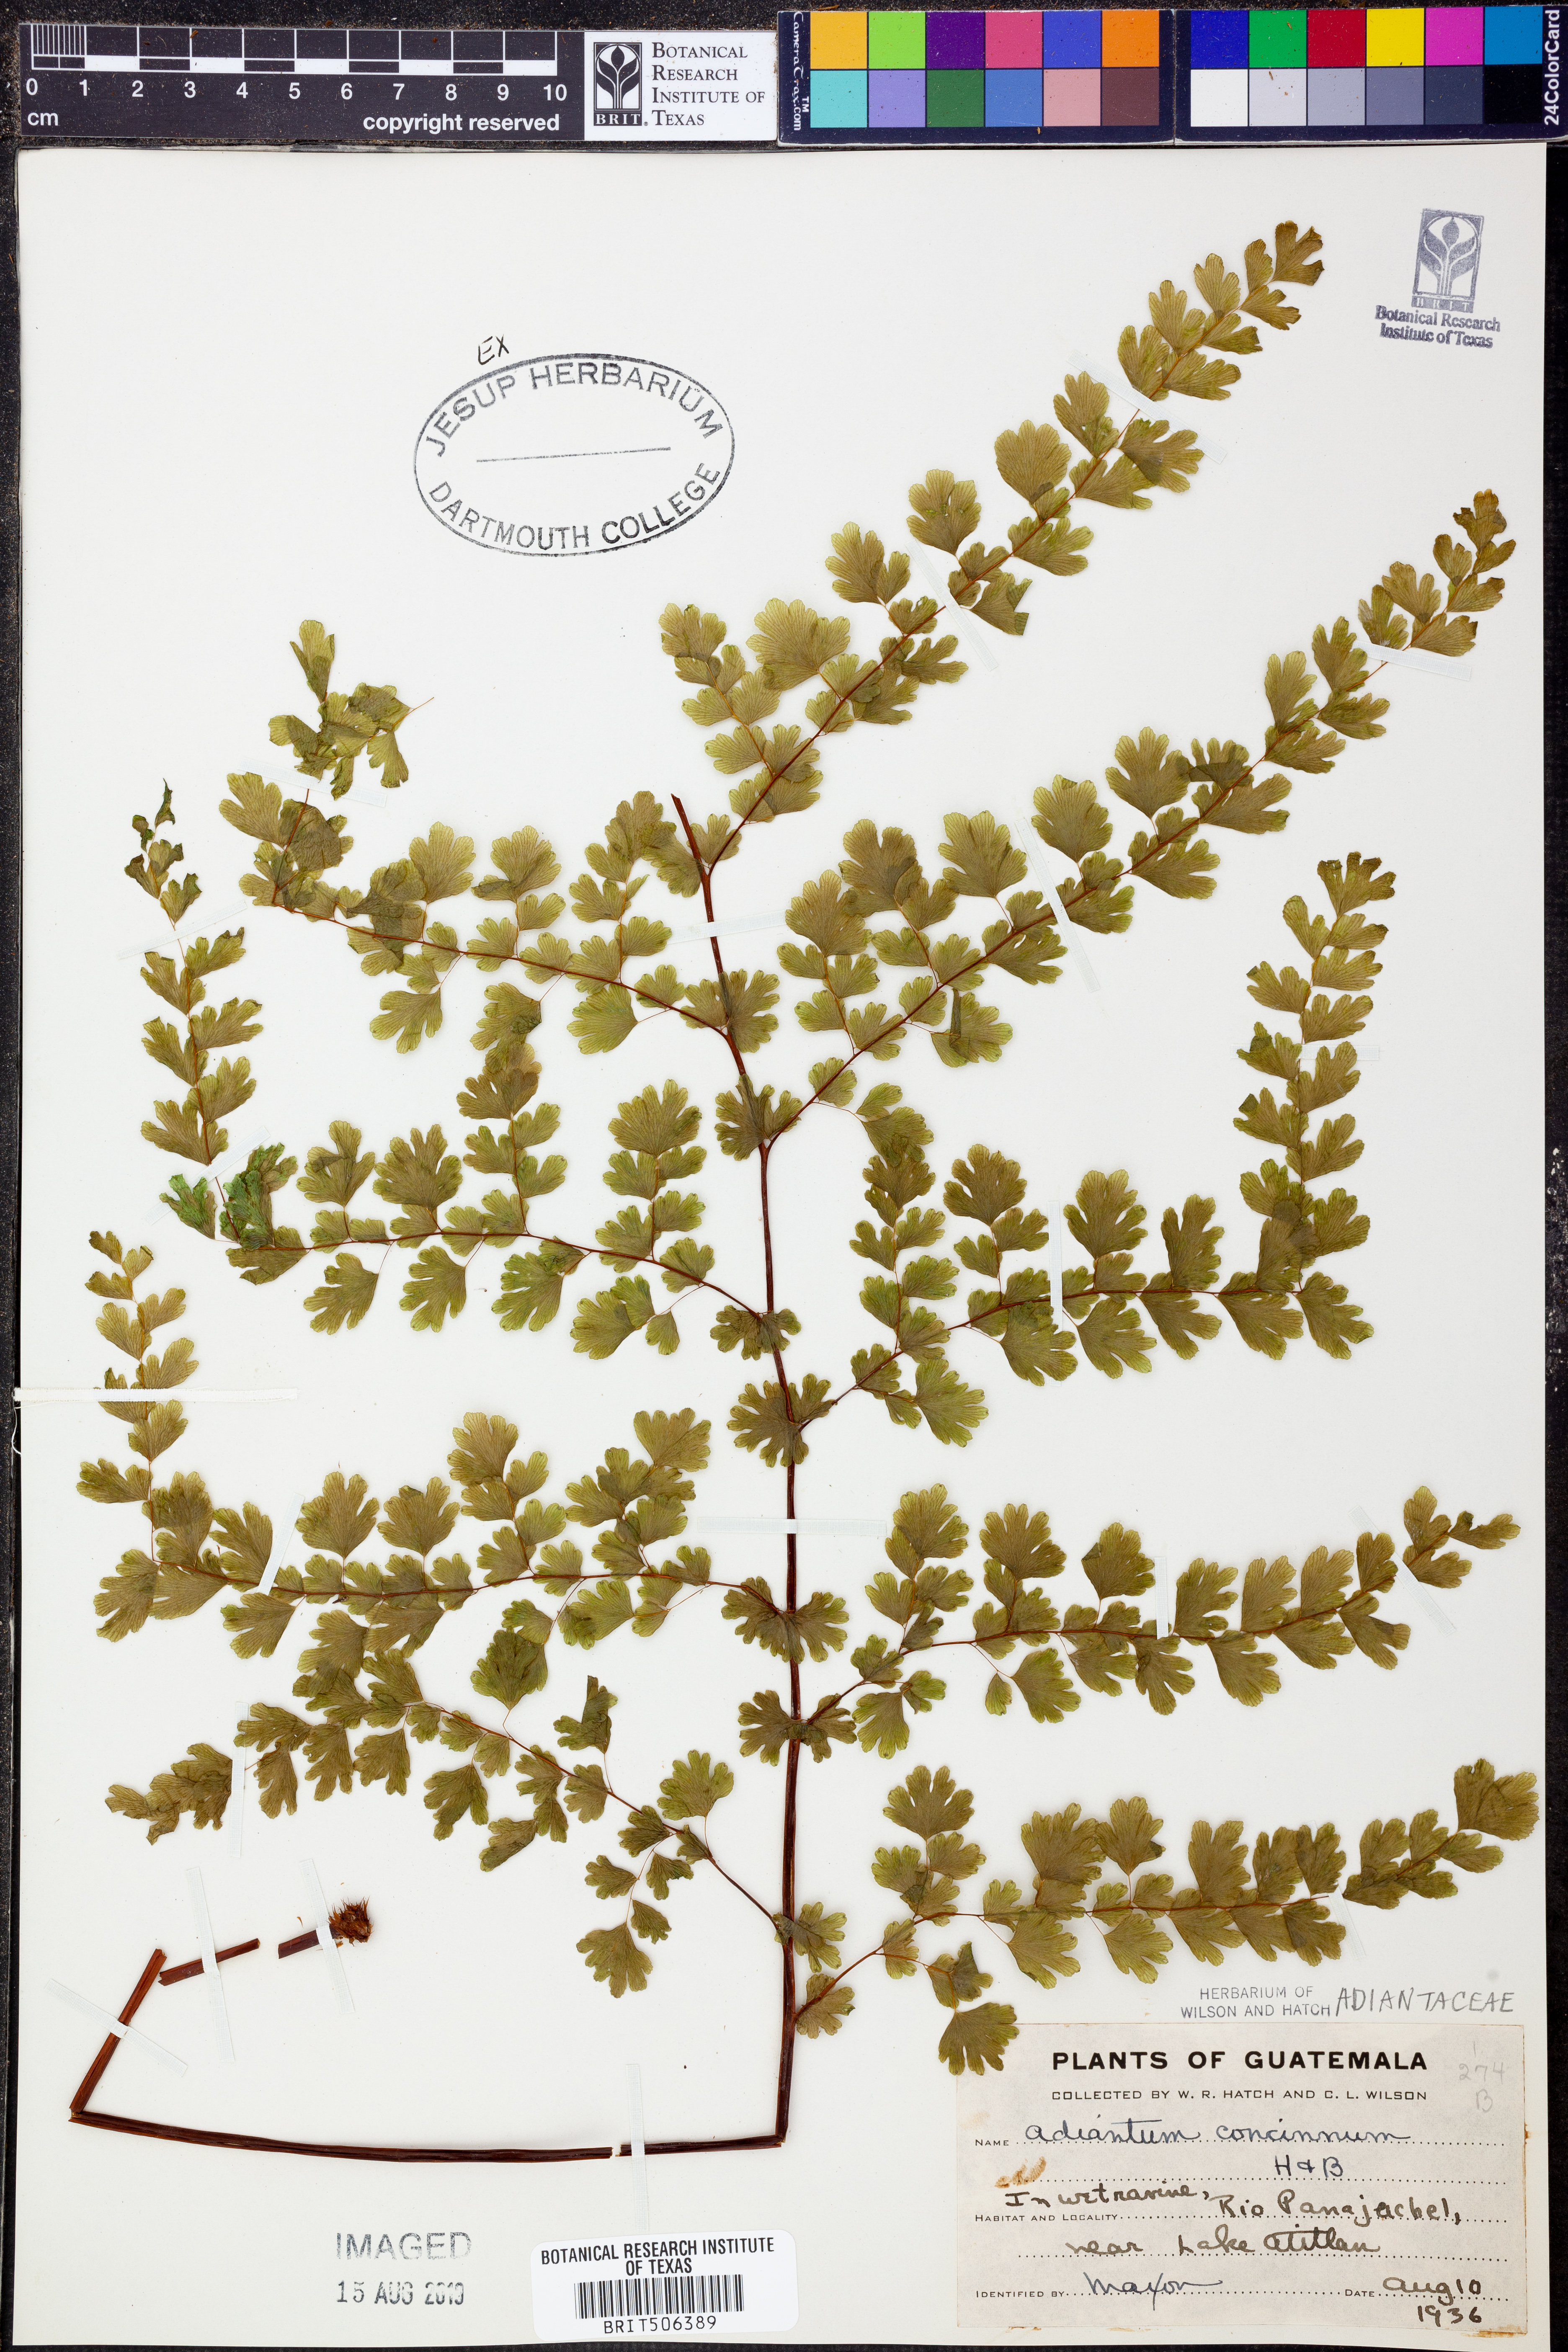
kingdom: Plantae
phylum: Tracheophyta
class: Polypodiopsida
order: Polypodiales
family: Pteridaceae
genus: Adiantum
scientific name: Adiantum concinnum
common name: Brittle maidenhair fern
